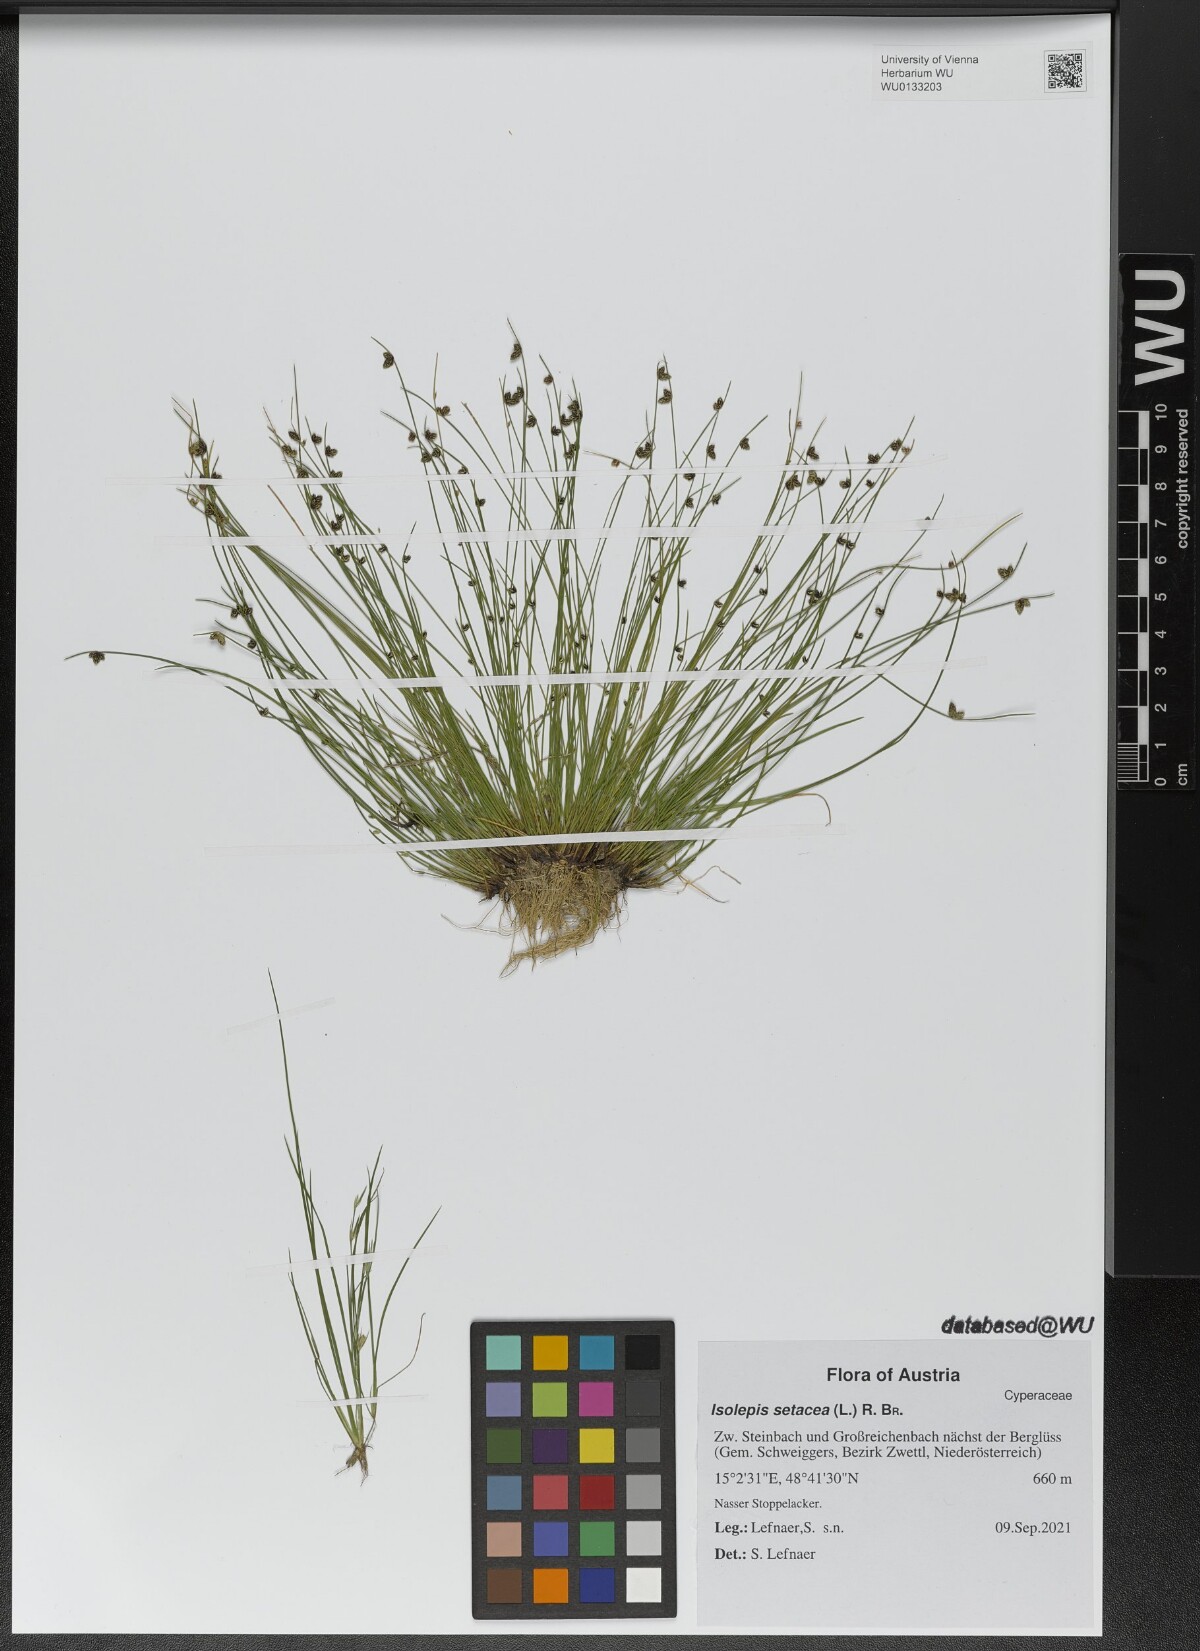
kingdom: Plantae
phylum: Tracheophyta
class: Liliopsida
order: Poales
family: Cyperaceae
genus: Isolepis
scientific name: Isolepis setacea
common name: Bristle club-rush
